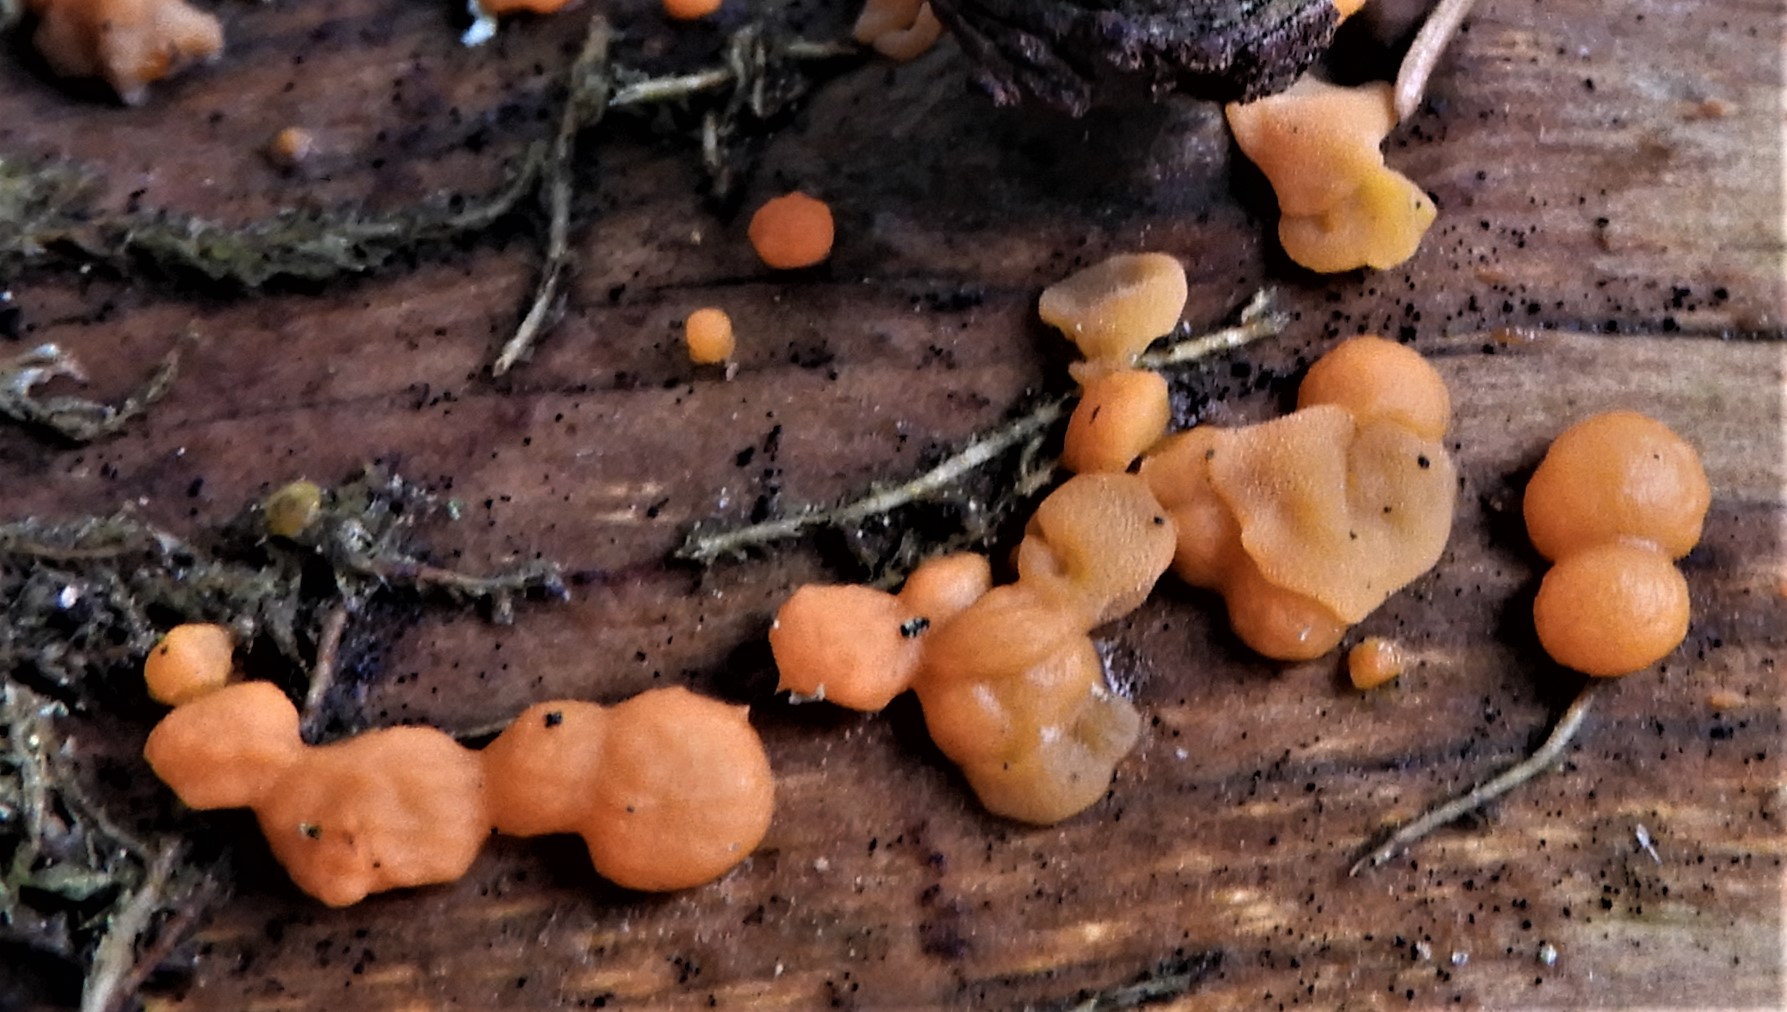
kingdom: Fungi
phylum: Basidiomycota
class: Dacrymycetes
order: Dacrymycetales
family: Dacrymycetaceae
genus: Dacrymyces
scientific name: Dacrymyces stillatus
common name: almindelig tåresvamp
